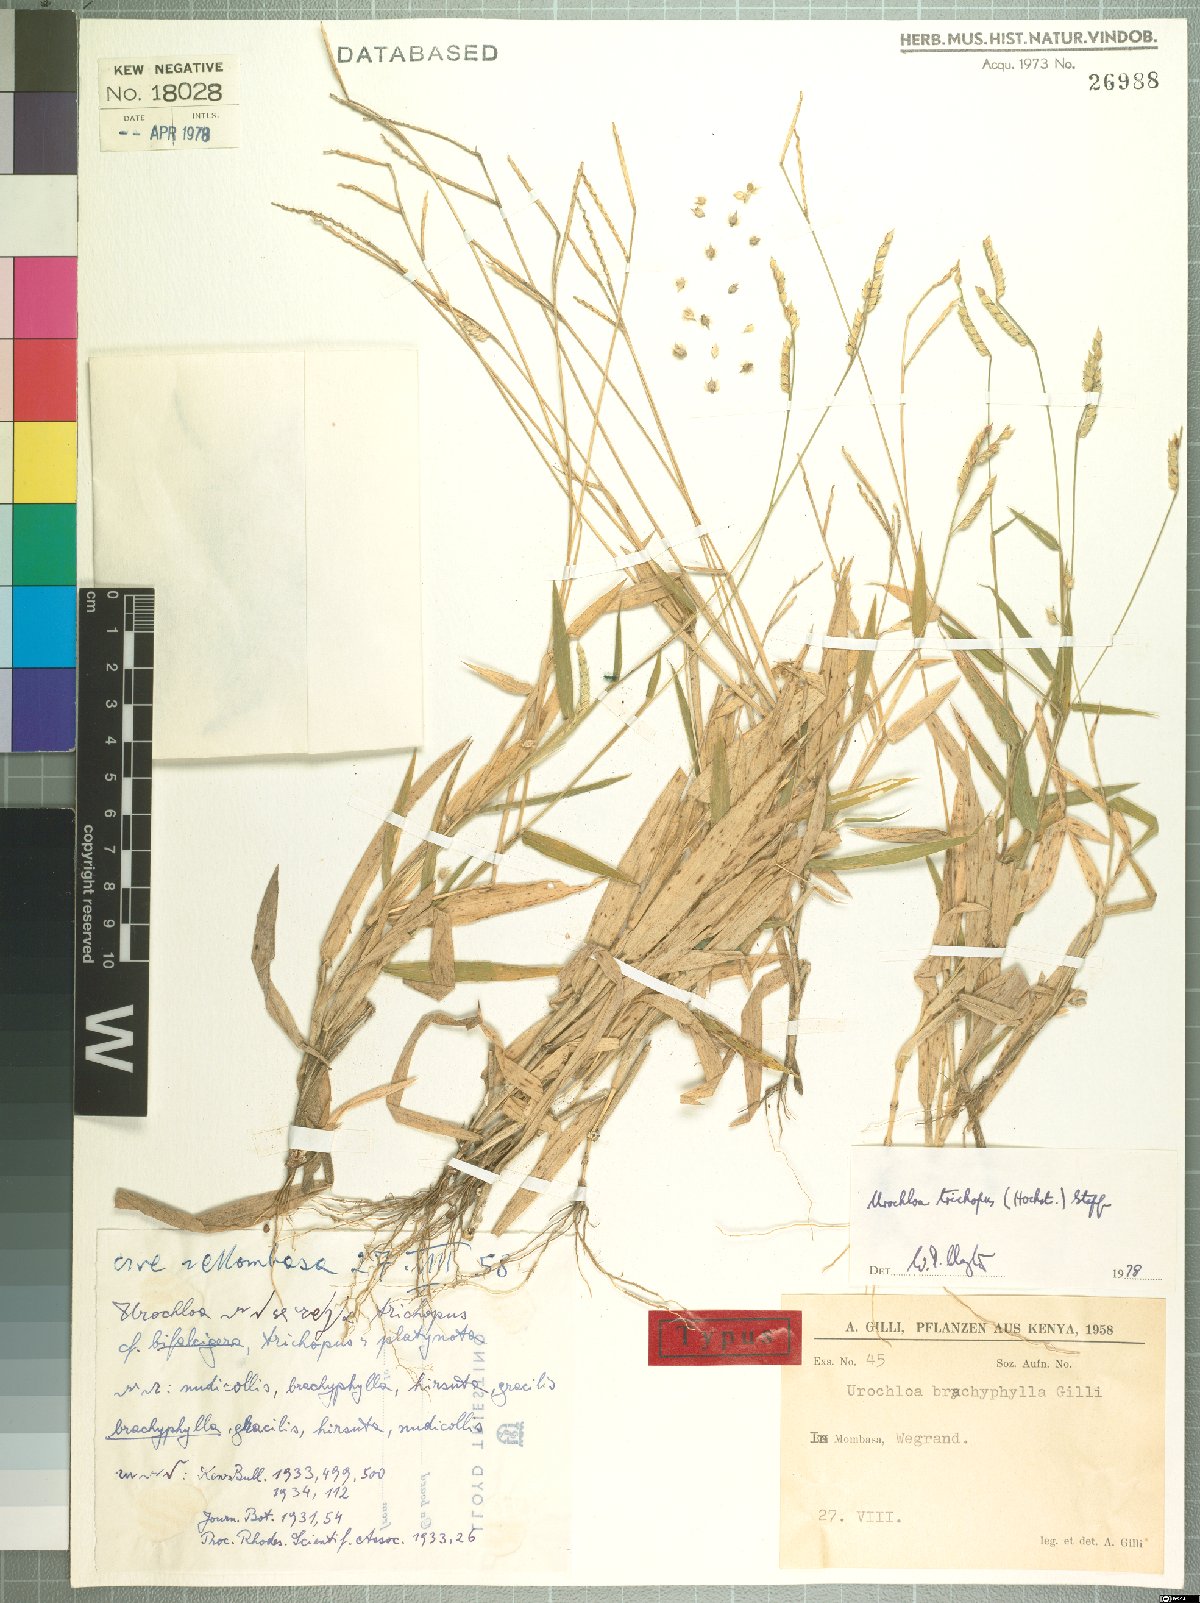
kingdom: Plantae
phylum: Tracheophyta
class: Liliopsida
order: Poales
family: Poaceae
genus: Urochloa
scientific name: Urochloa trichopus
